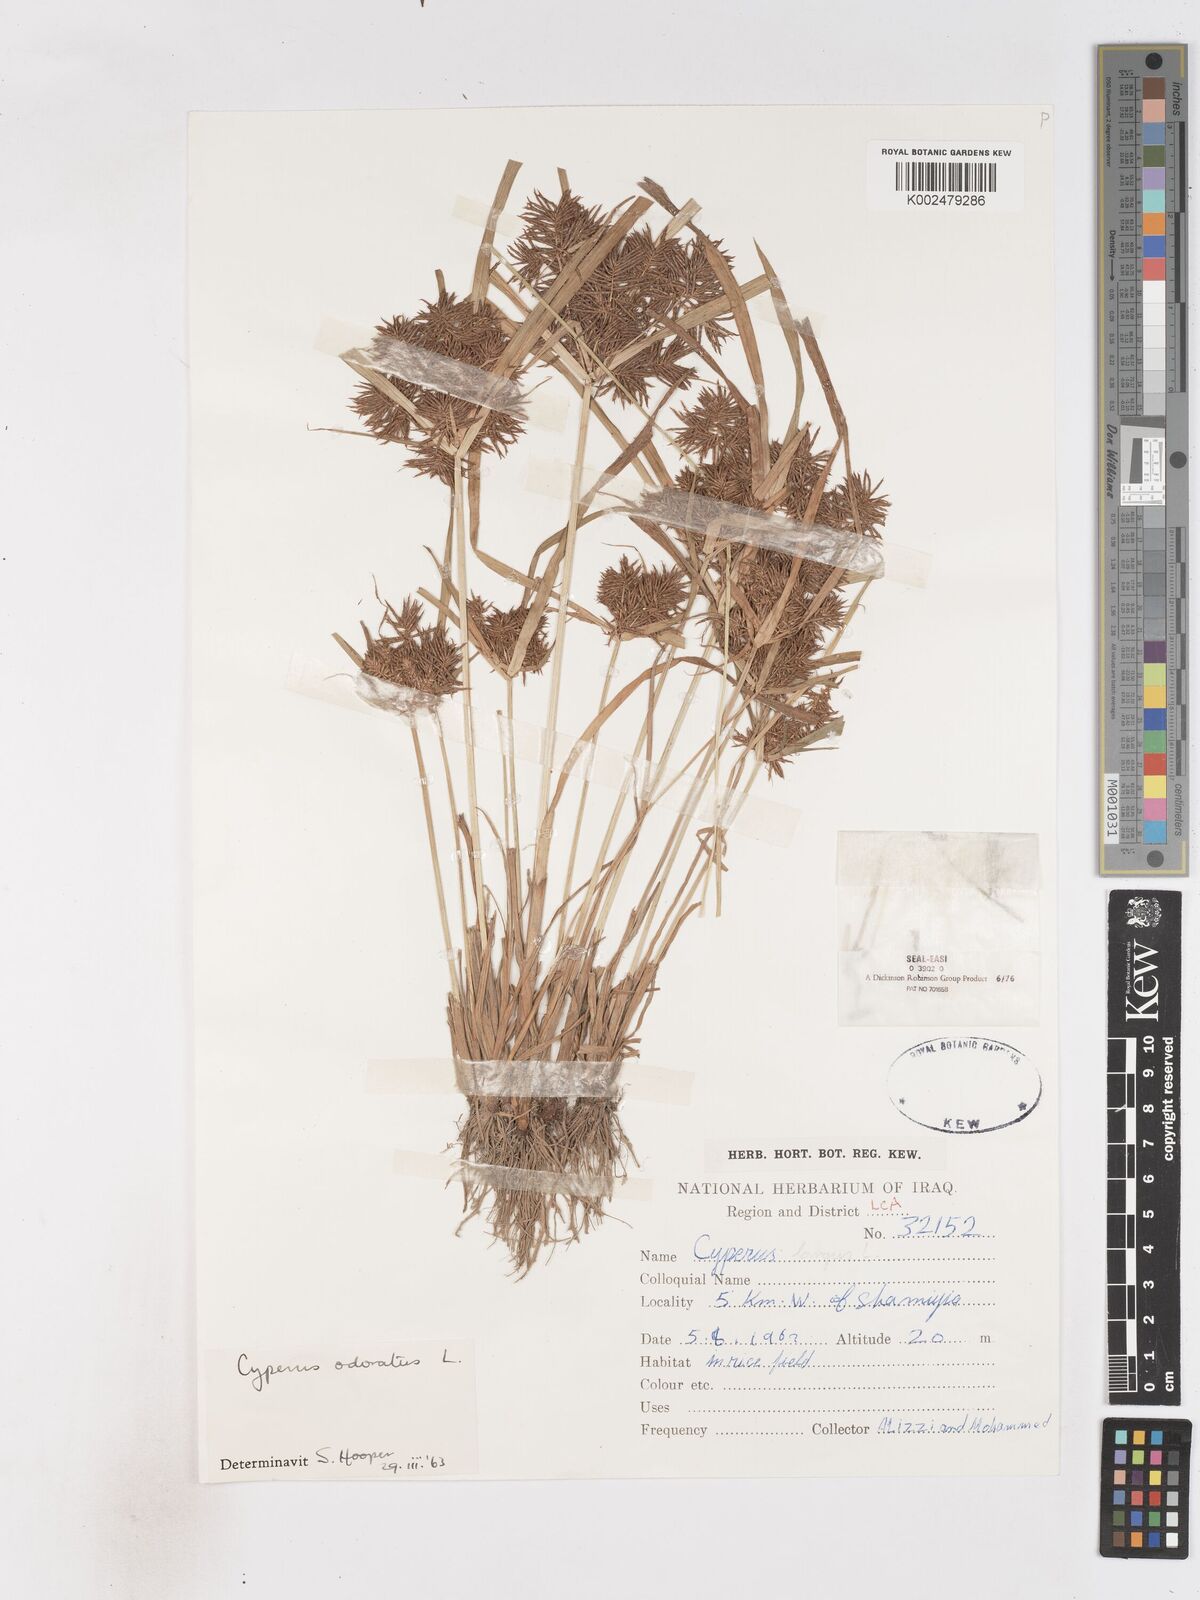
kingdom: Plantae
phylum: Tracheophyta
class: Liliopsida
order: Poales
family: Cyperaceae
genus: Cyperus
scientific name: Cyperus odoratus
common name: Fragrant flatsedge
